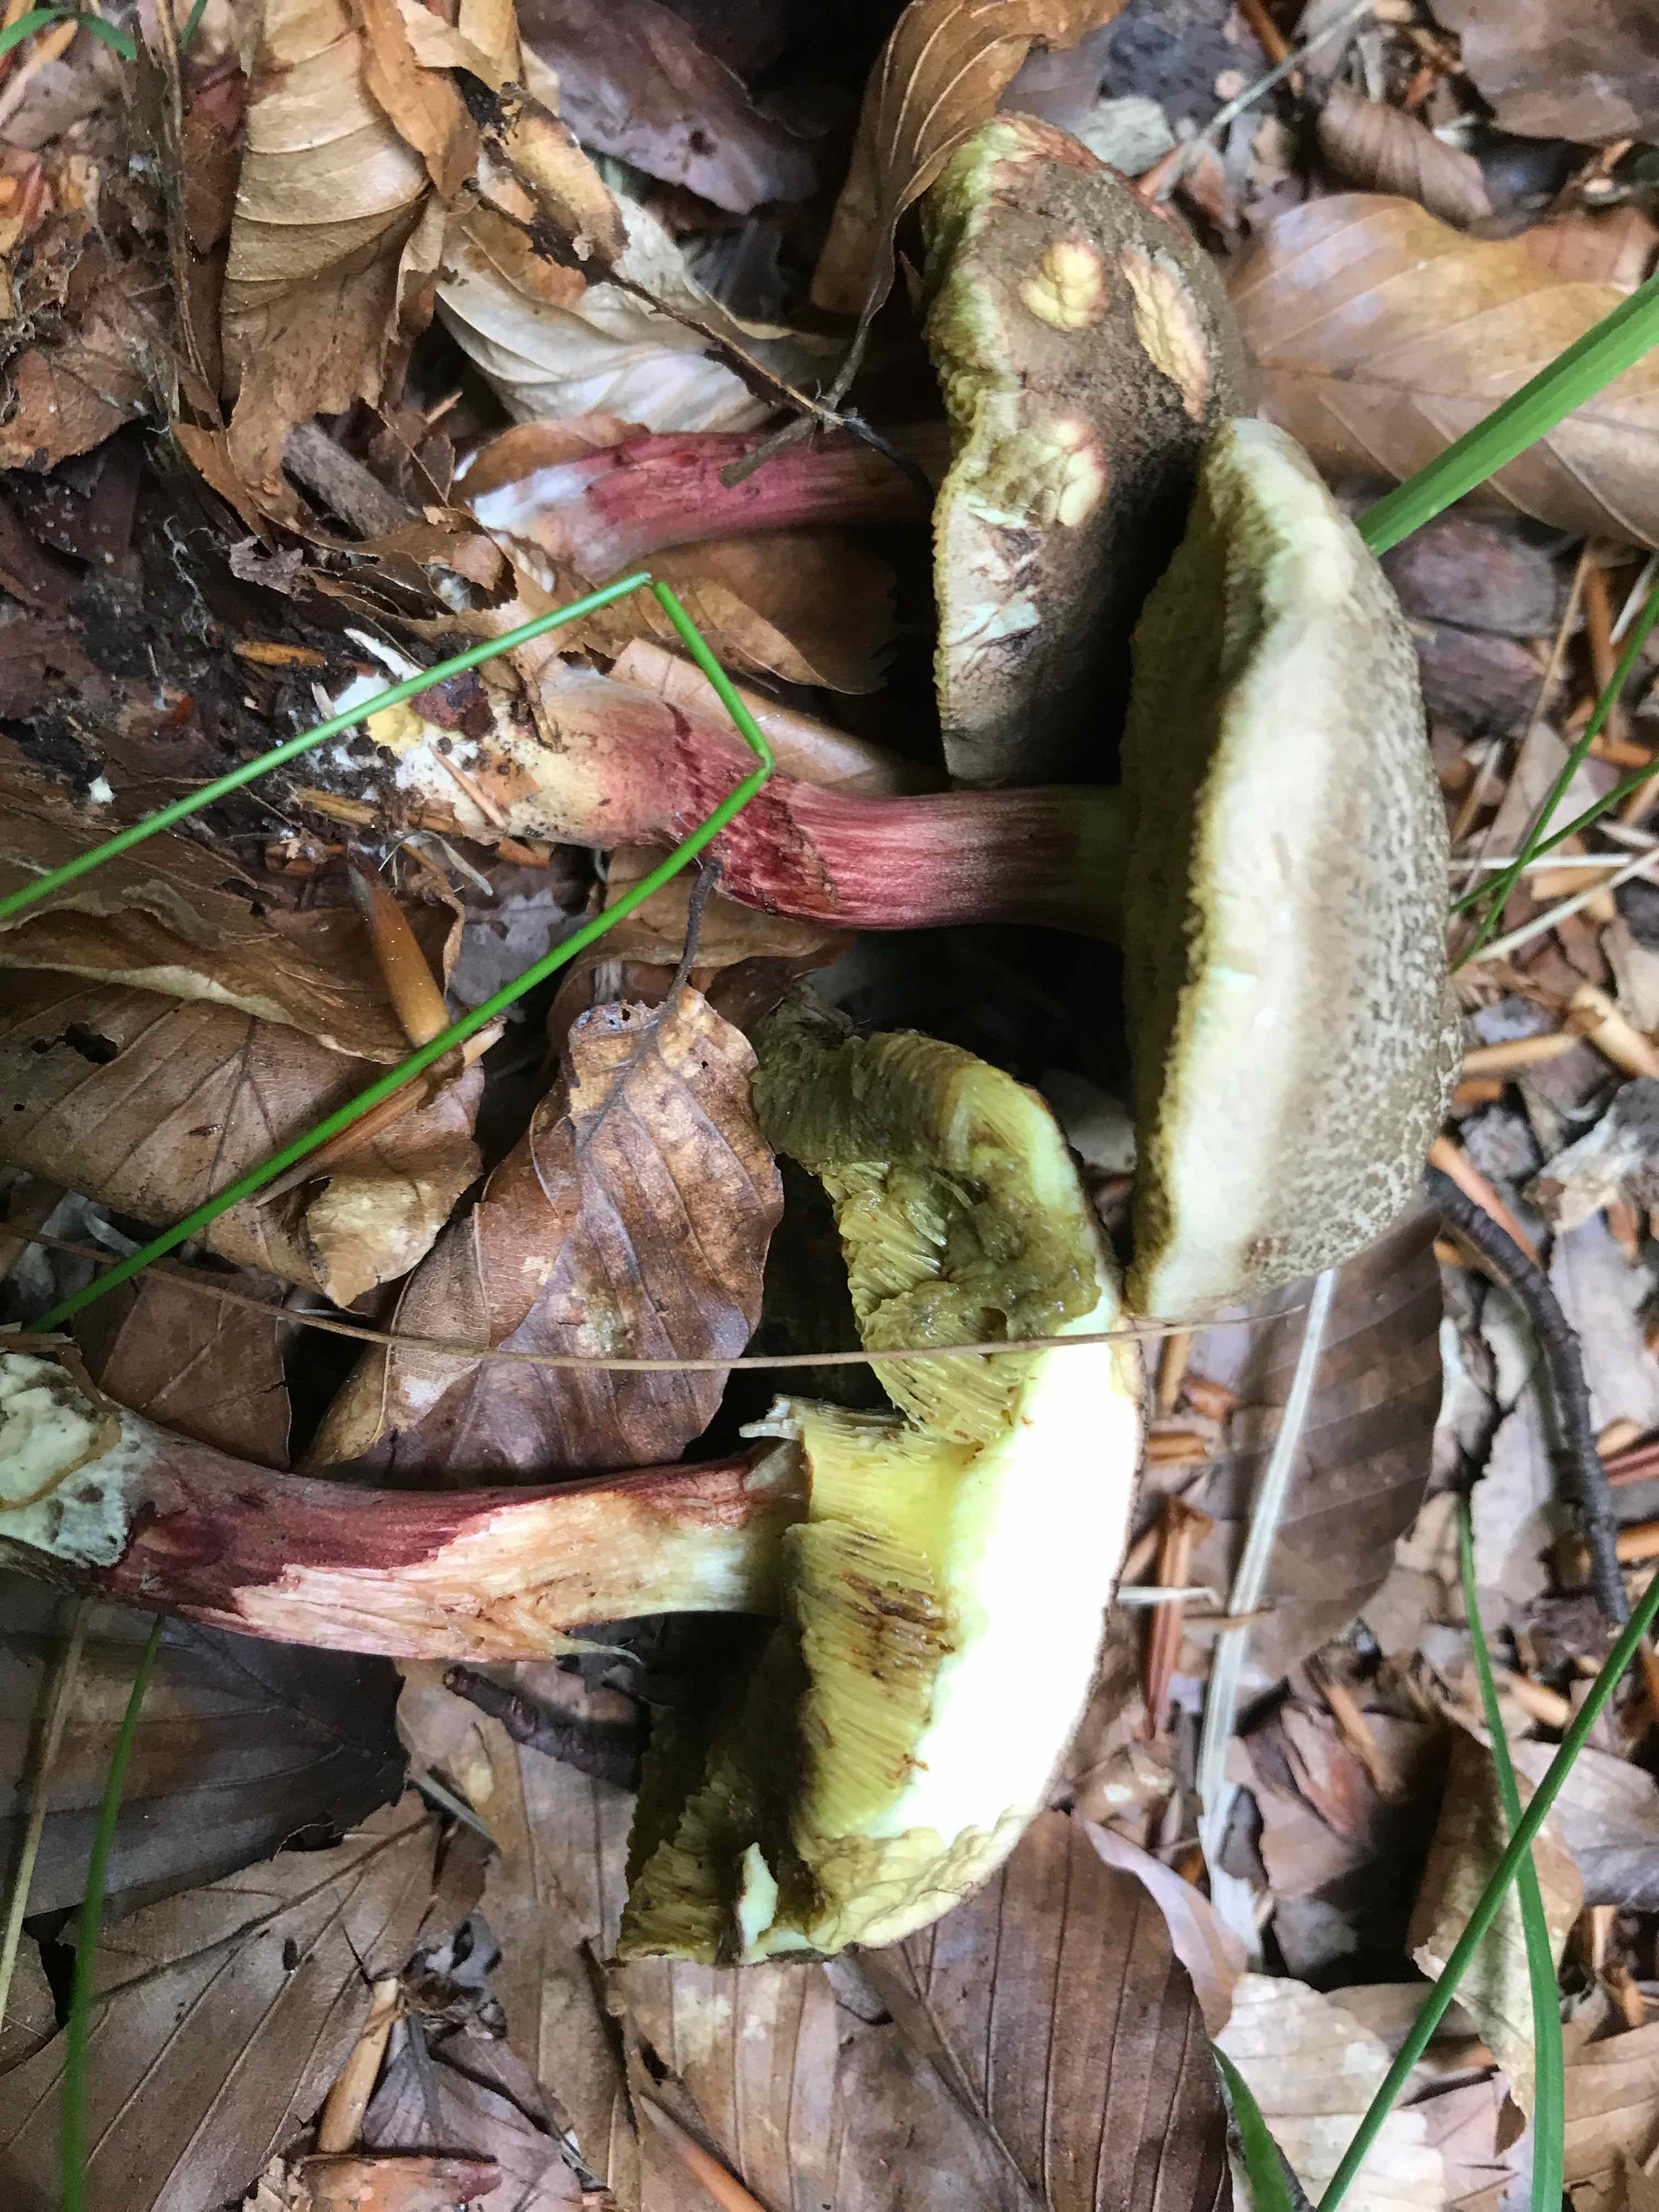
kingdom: Fungi
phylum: Basidiomycota
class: Agaricomycetes
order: Boletales
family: Boletaceae
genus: Xerocomellus
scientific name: Xerocomellus chrysenteron
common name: rødsprukken rørhat
